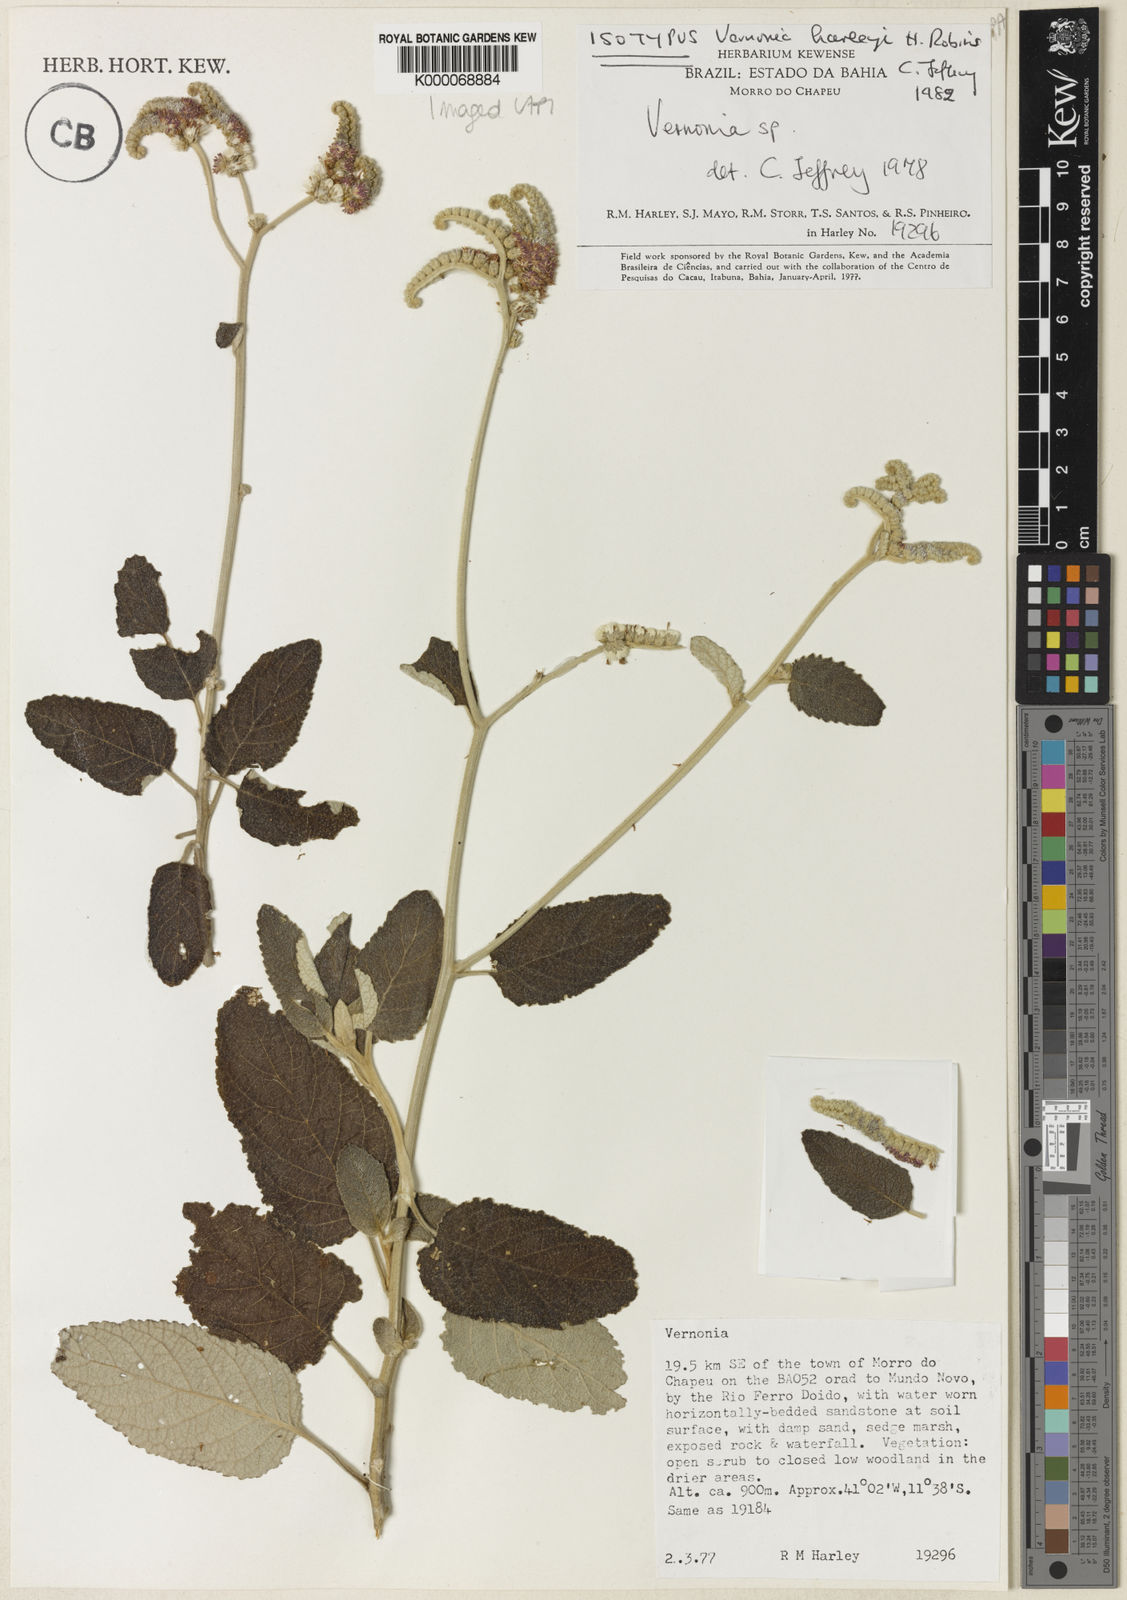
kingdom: Plantae
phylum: Tracheophyta
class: Magnoliopsida
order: Asterales
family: Asteraceae
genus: Cyrtocymura
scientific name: Cyrtocymura harleyi
